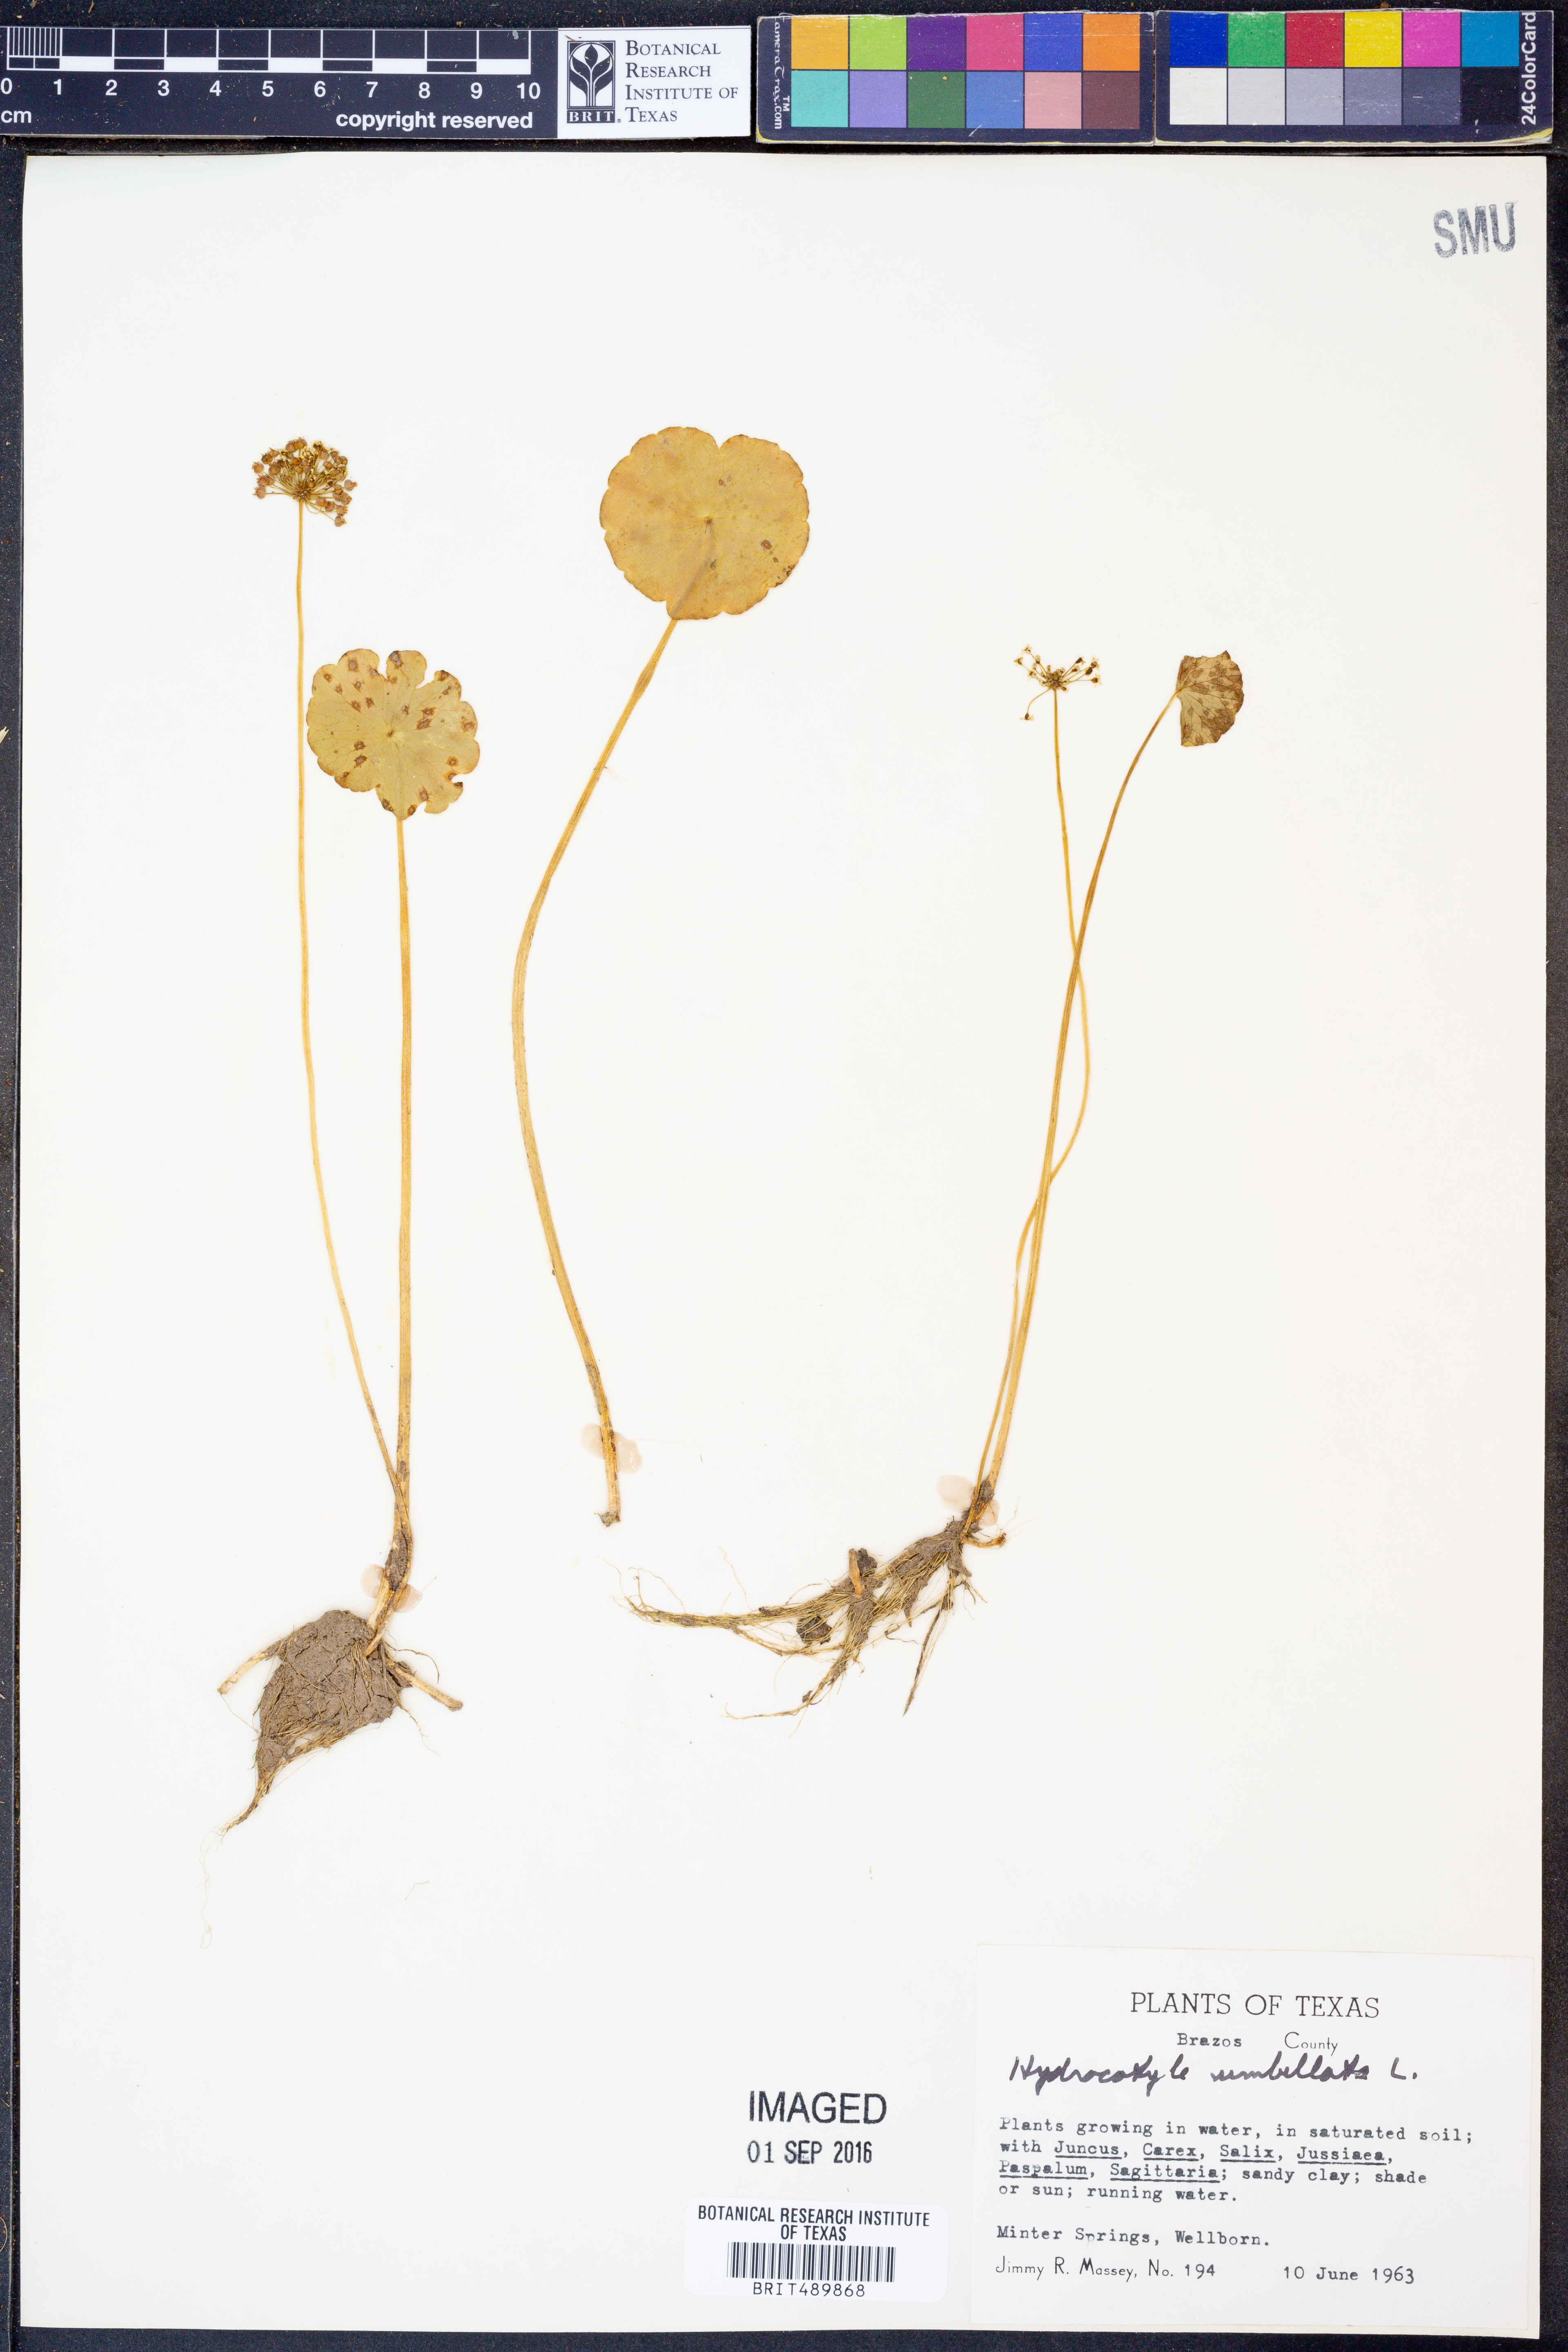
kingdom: Plantae
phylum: Tracheophyta
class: Magnoliopsida
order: Apiales
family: Araliaceae
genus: Hydrocotyle
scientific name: Hydrocotyle umbellata
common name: Water pennywort
